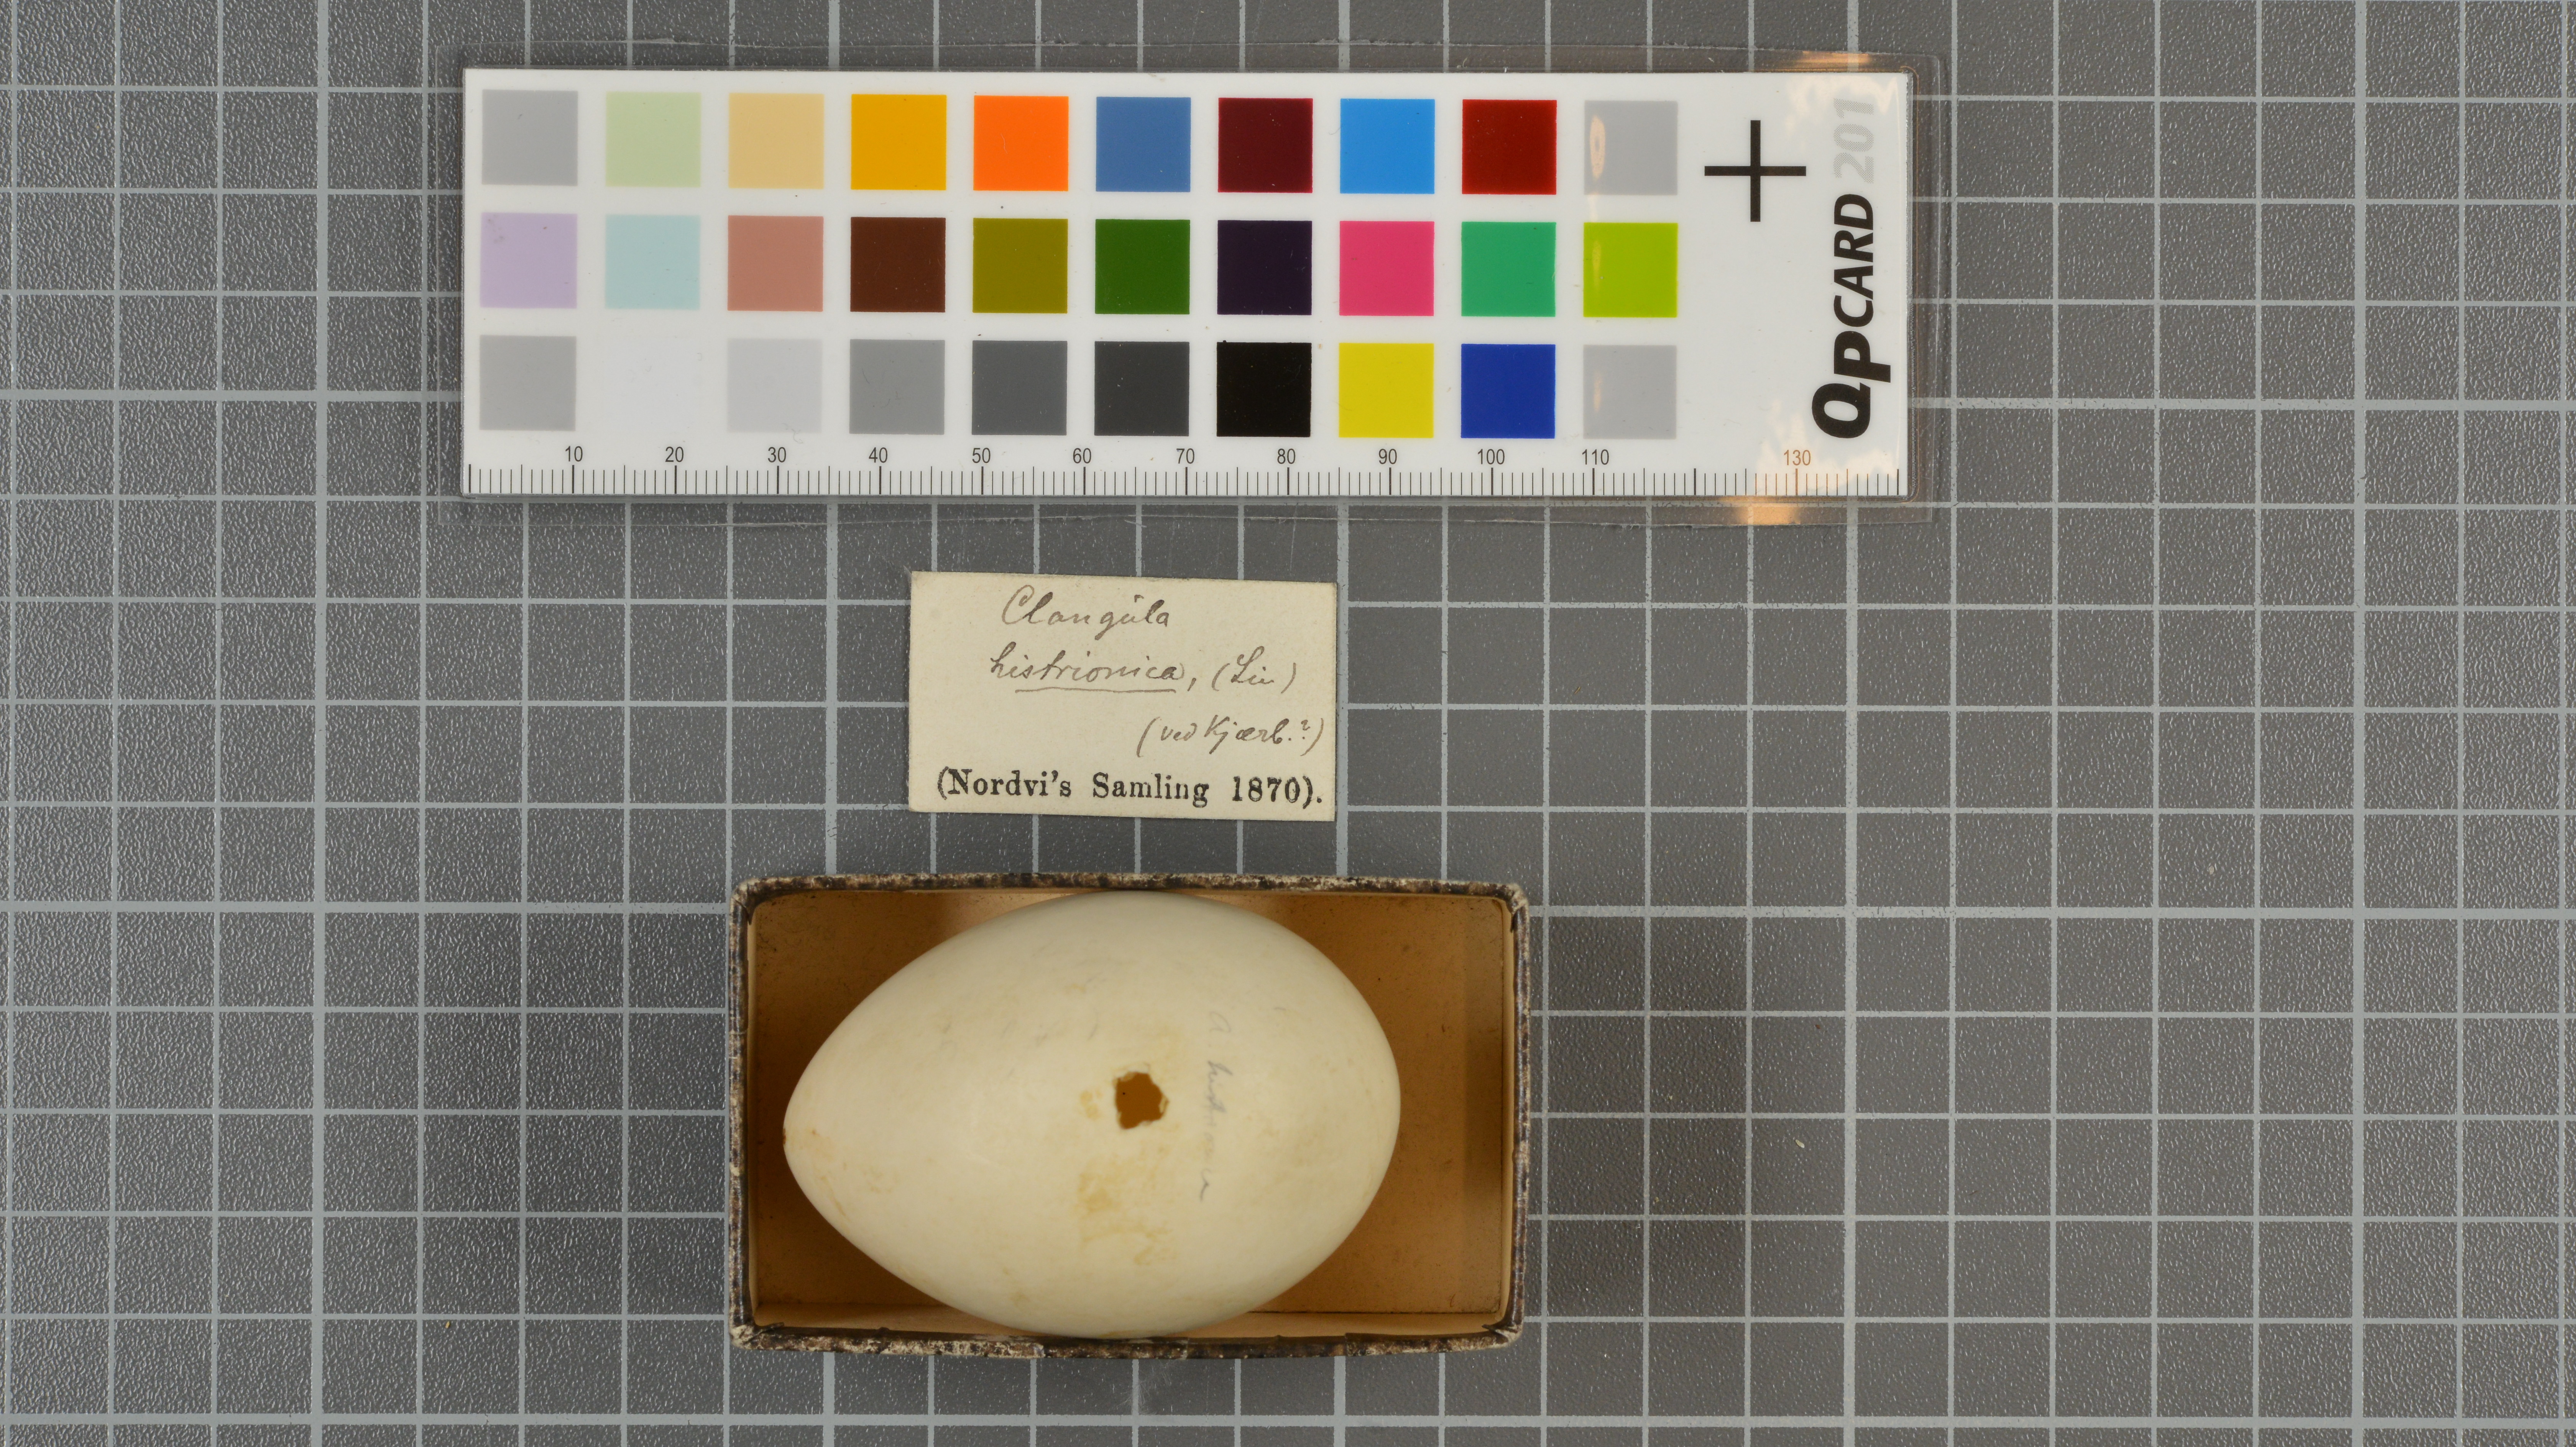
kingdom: Animalia
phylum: Chordata
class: Aves
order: Anseriformes
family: Anatidae
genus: Histrionicus
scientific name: Histrionicus histrionicus
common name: Harlequin duck
